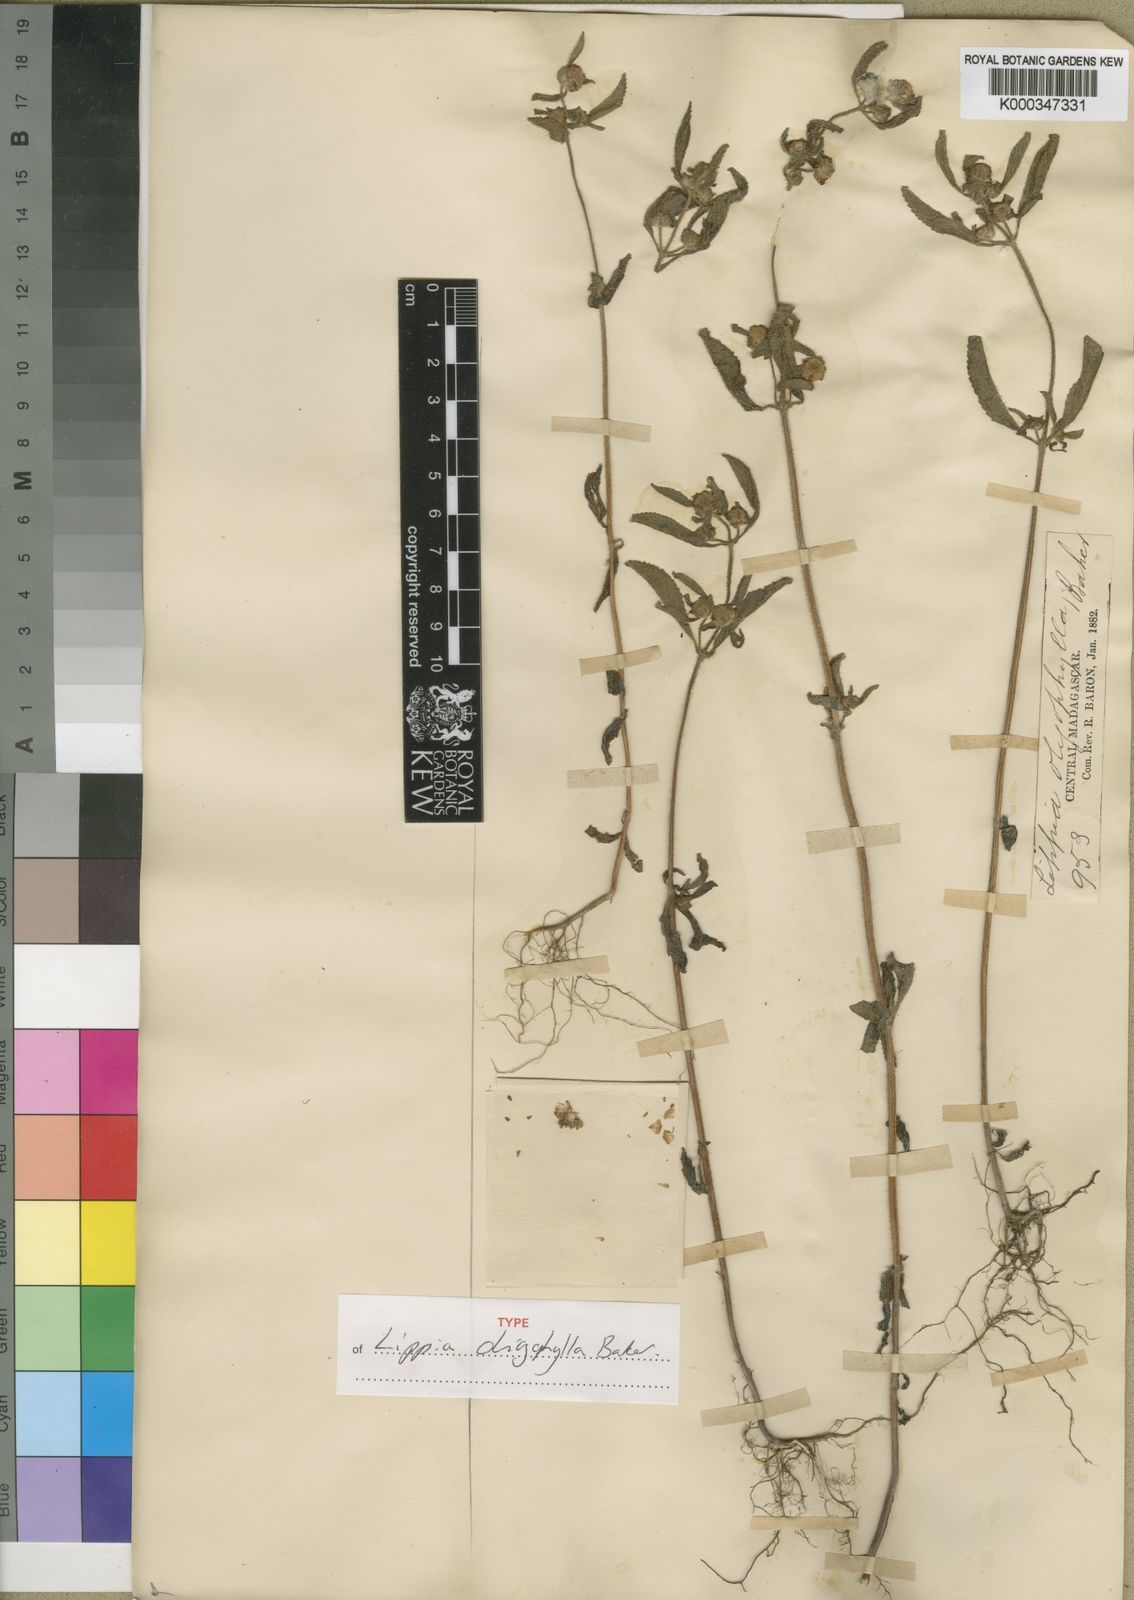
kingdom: Plantae
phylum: Tracheophyta
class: Magnoliopsida
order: Lamiales
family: Lamiaceae
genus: Haumaniastrum
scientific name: Haumaniastrum villosum
